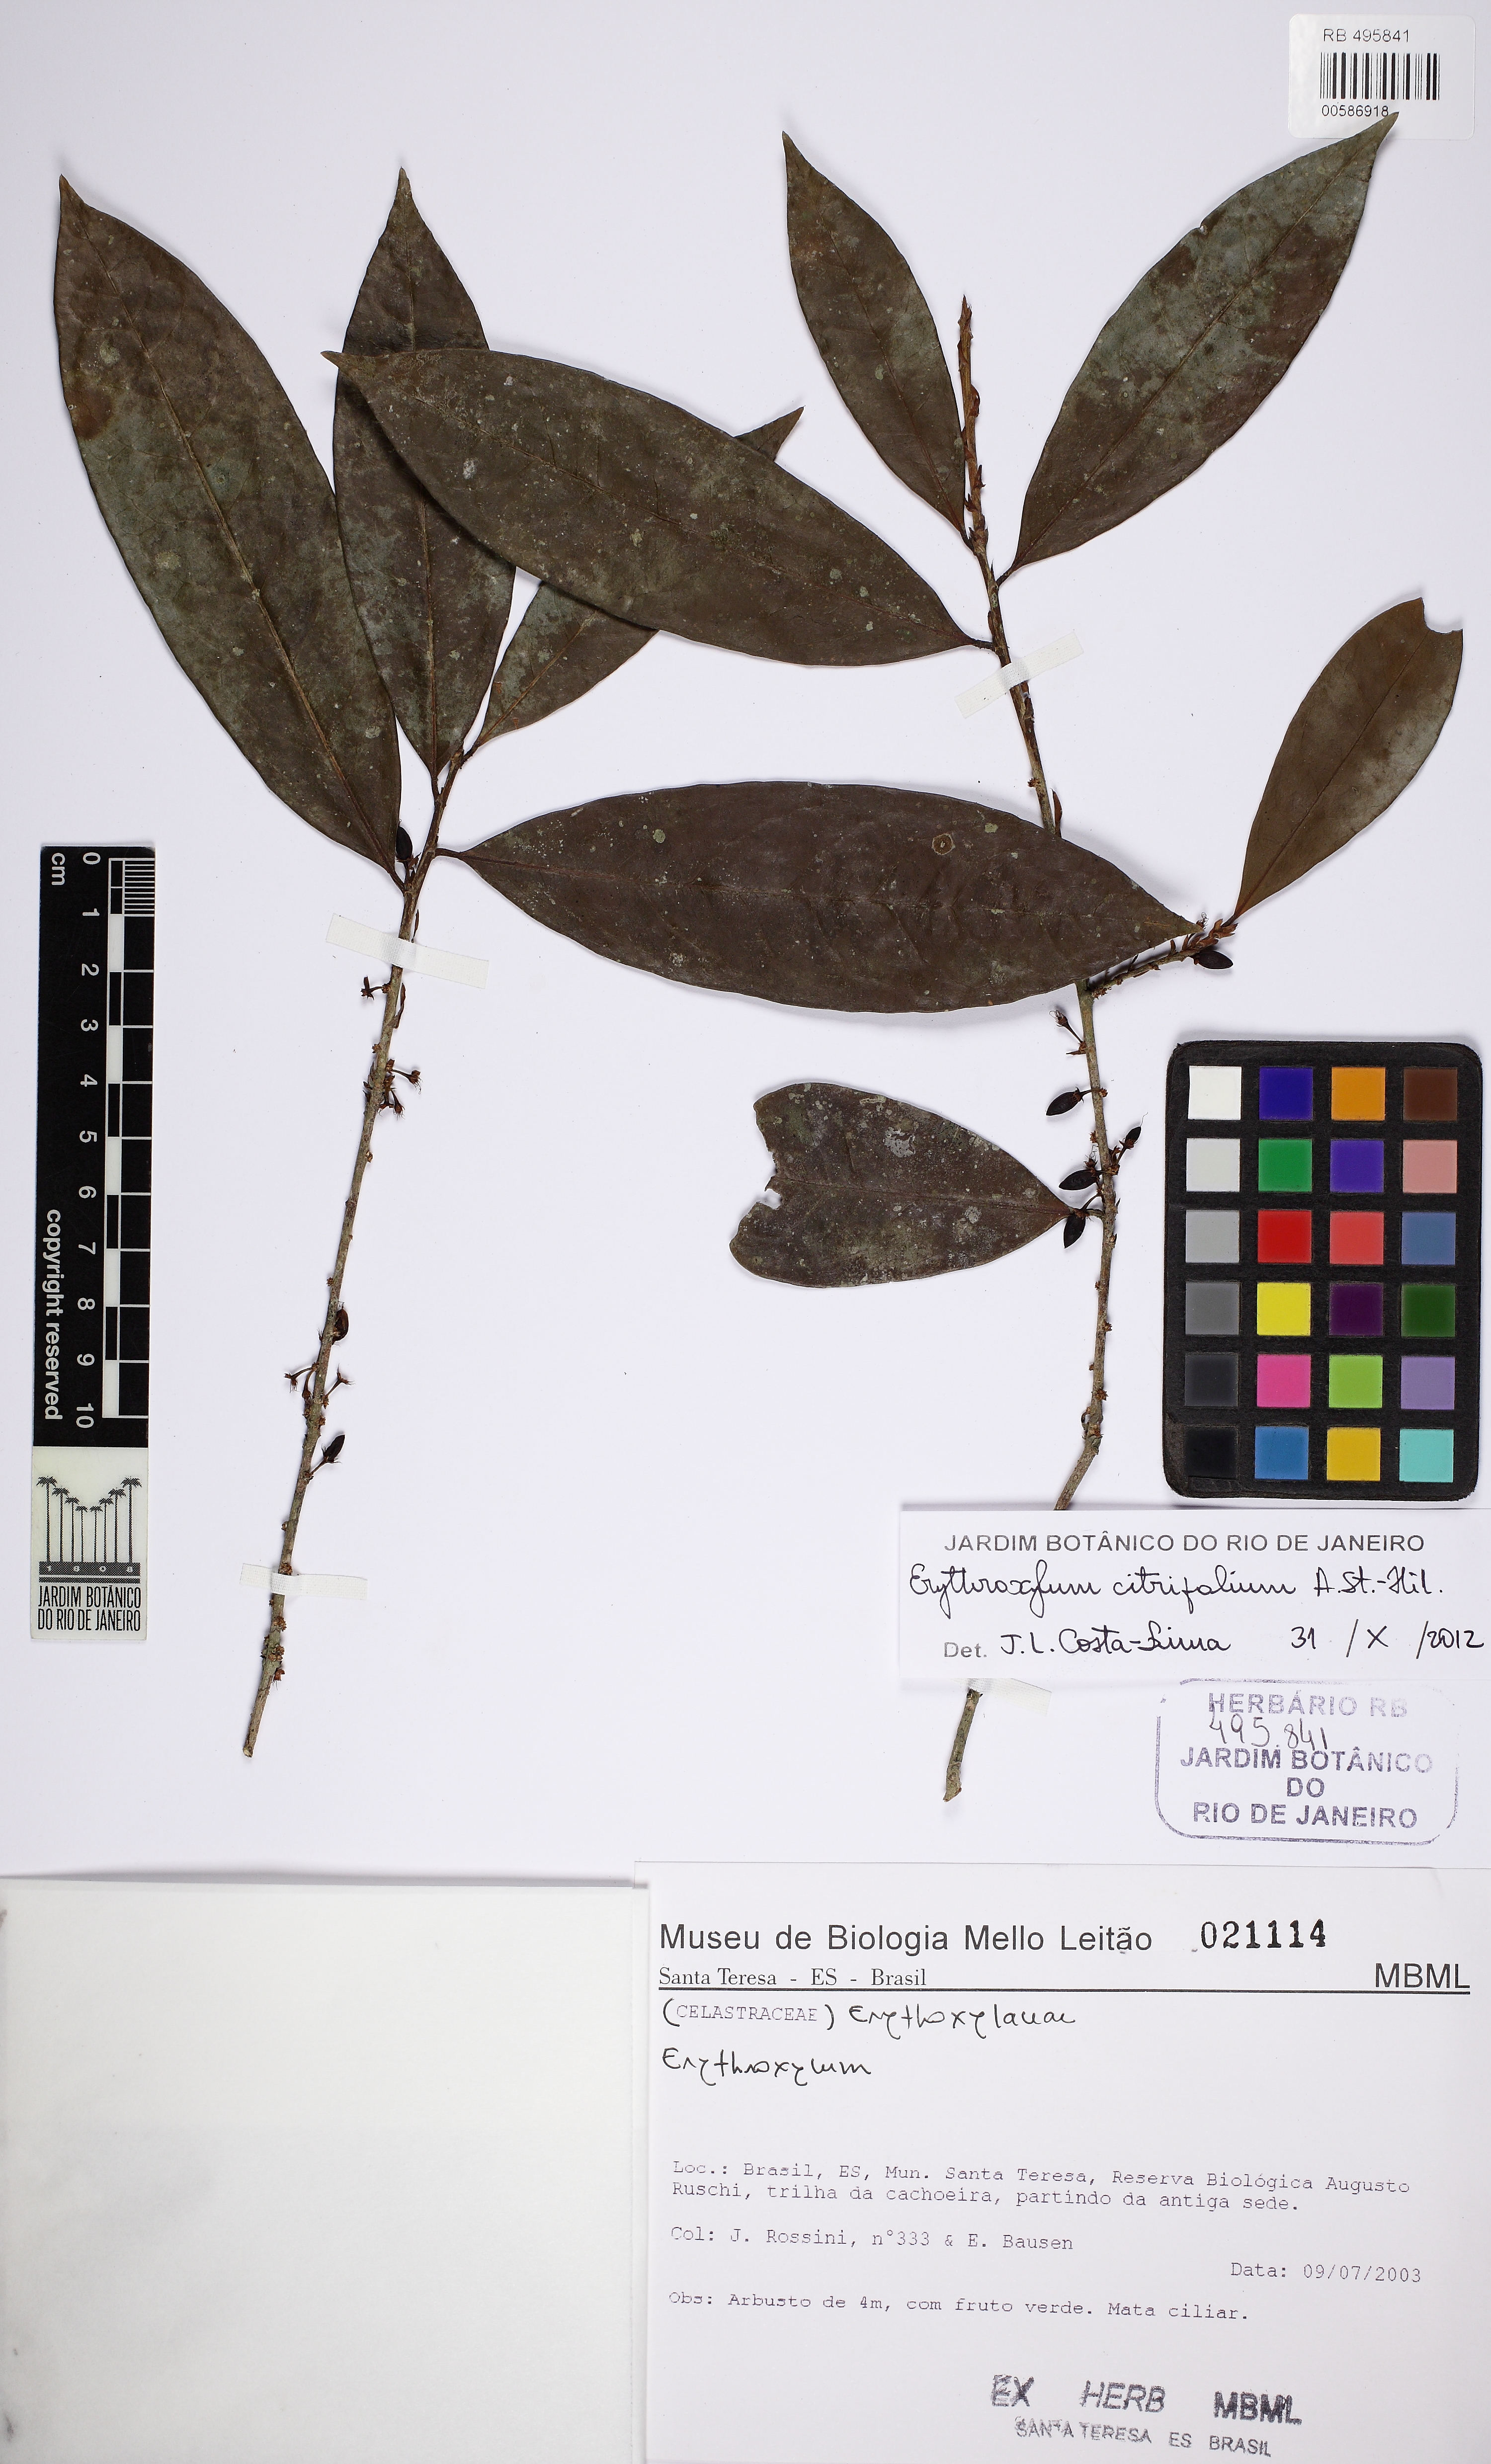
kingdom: Plantae
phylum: Tracheophyta
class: Magnoliopsida
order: Malpighiales
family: Erythroxylaceae
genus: Erythroxylum
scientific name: Erythroxylum citrifolium
